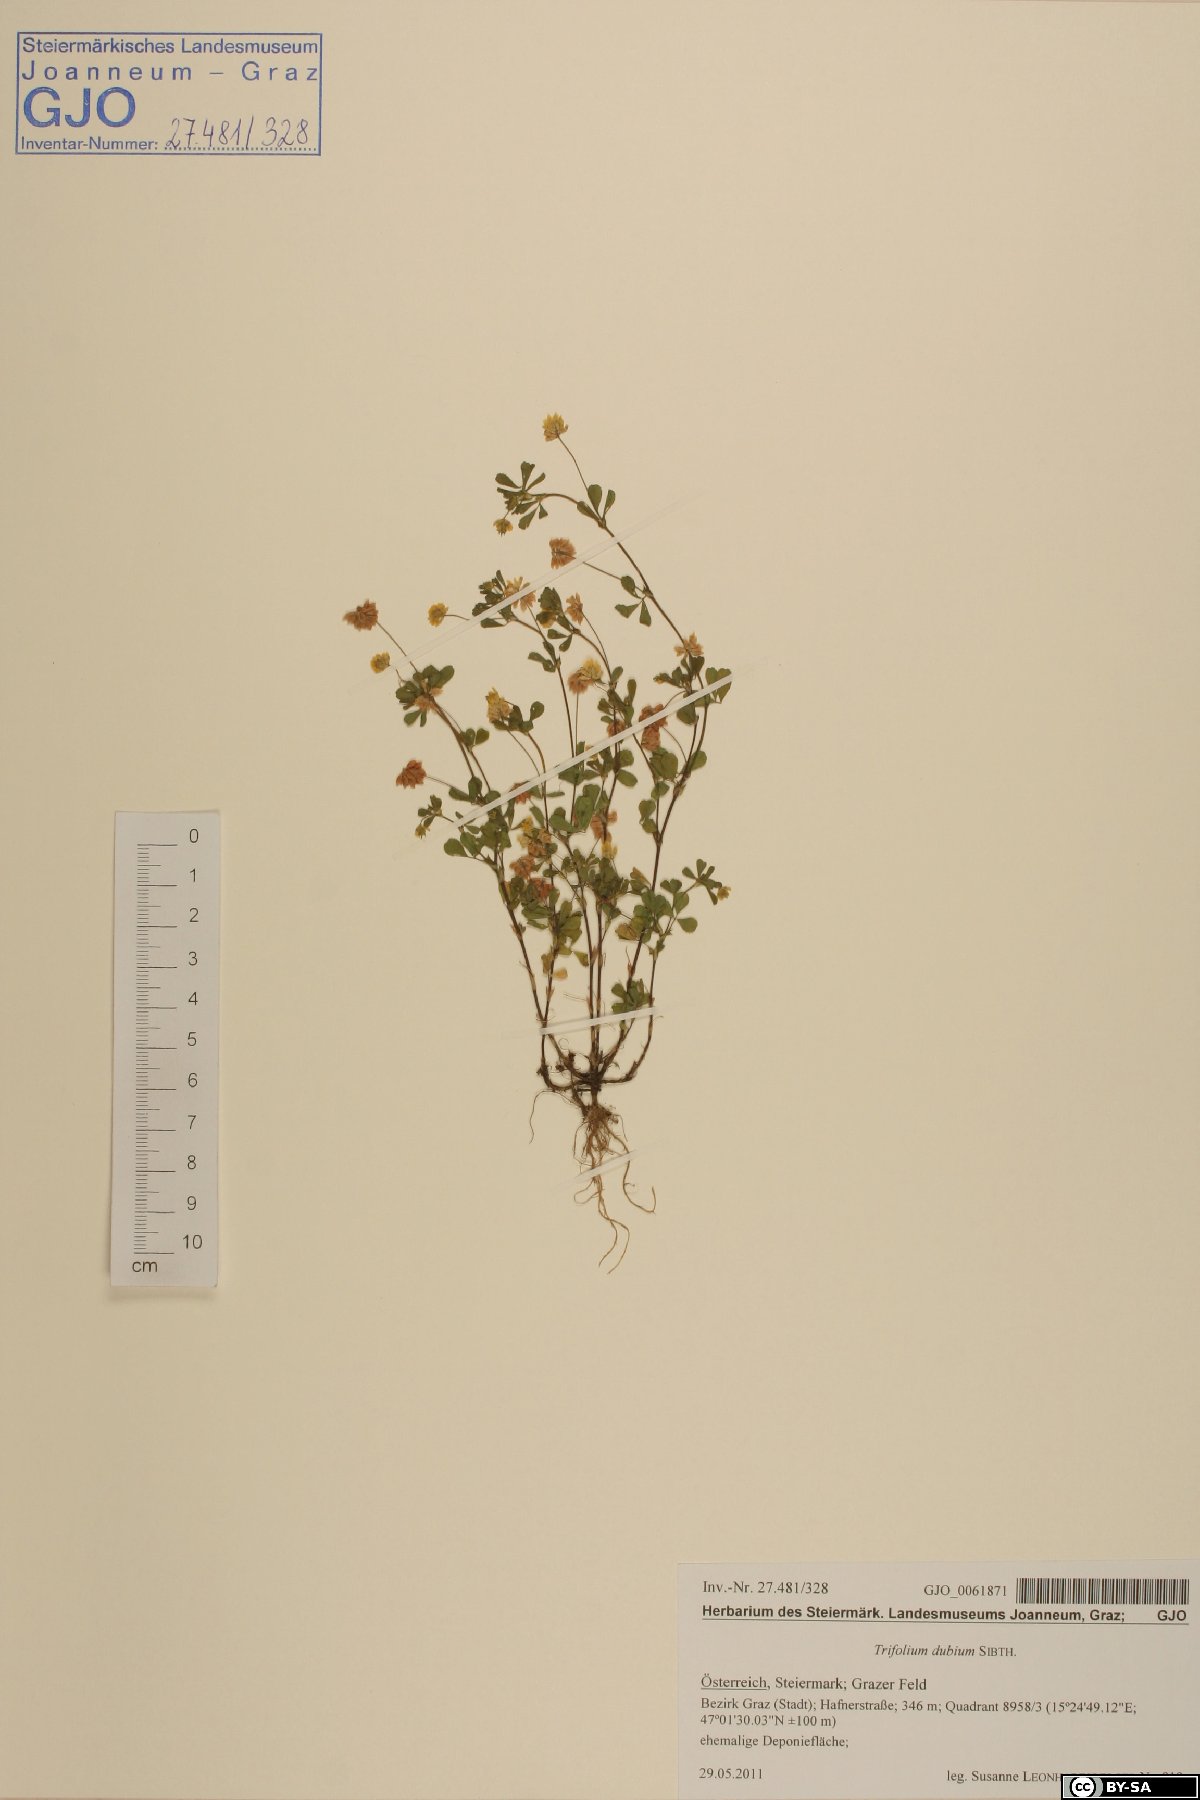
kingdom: Plantae
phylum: Tracheophyta
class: Magnoliopsida
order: Fabales
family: Fabaceae
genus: Trifolium
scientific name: Trifolium dubium
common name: Suckling clover
